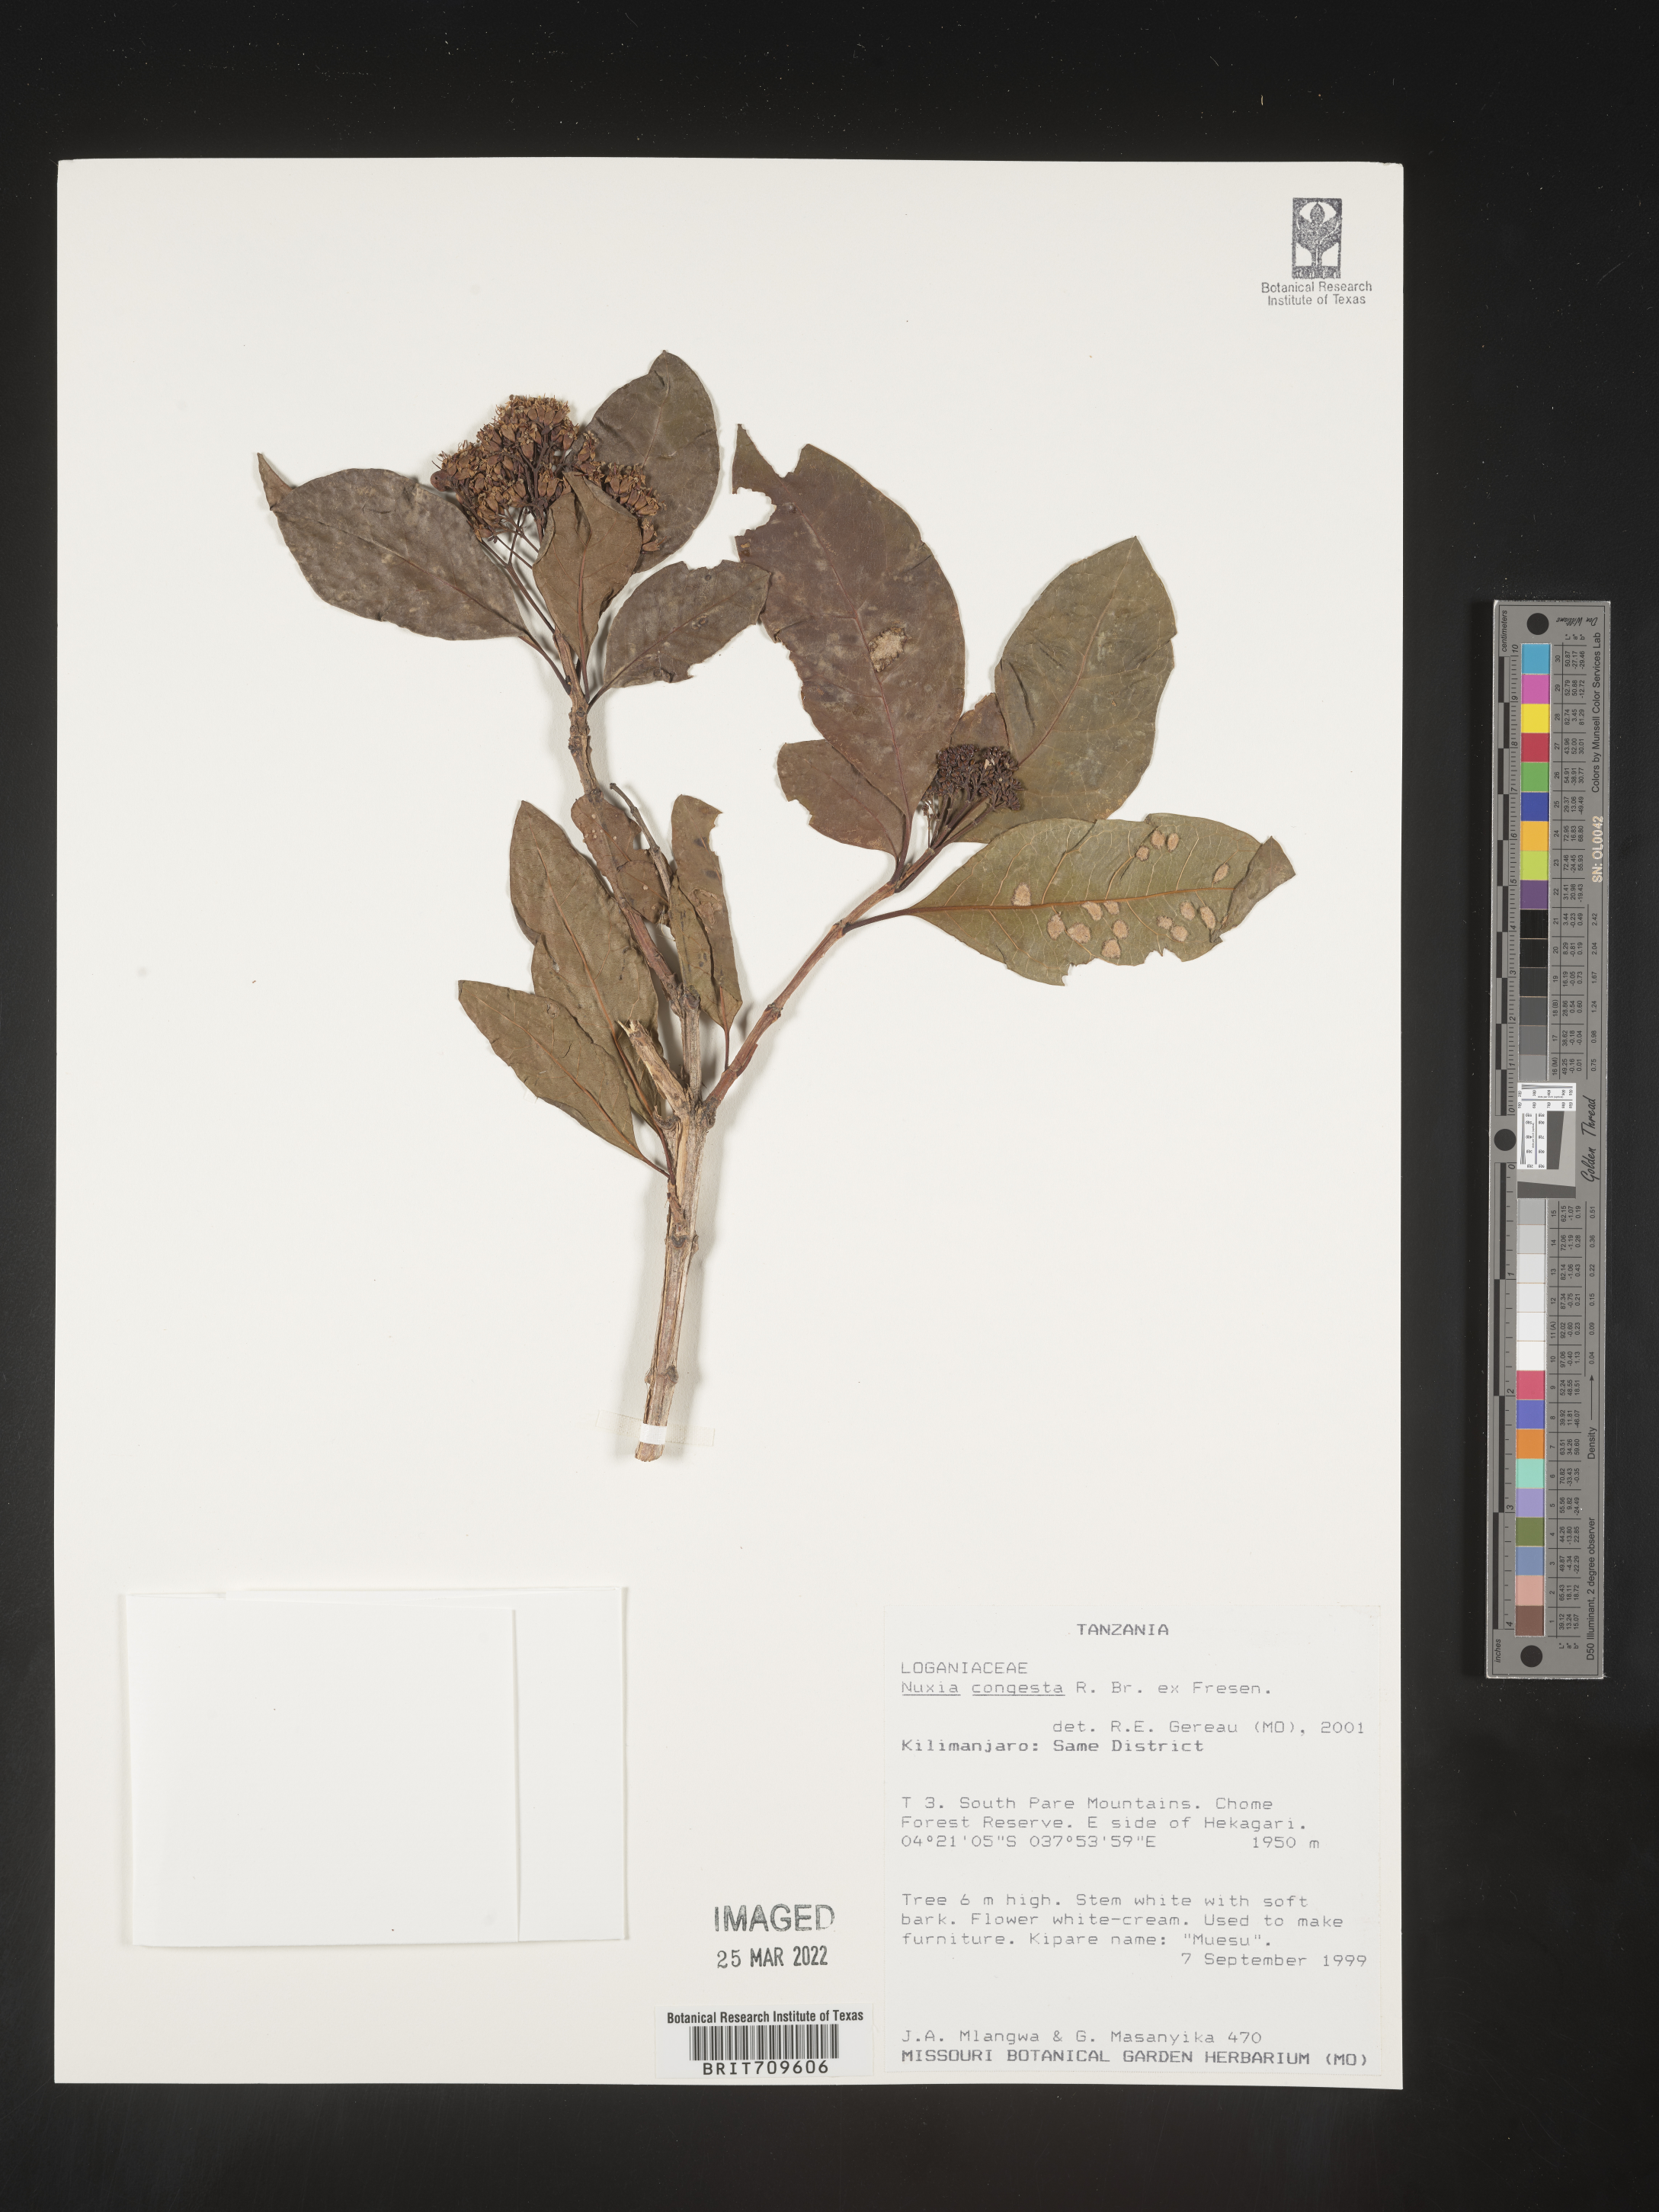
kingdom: Plantae
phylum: Tracheophyta
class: Magnoliopsida
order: Lamiales
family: Stilbaceae
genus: Nuxia
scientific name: Nuxia
